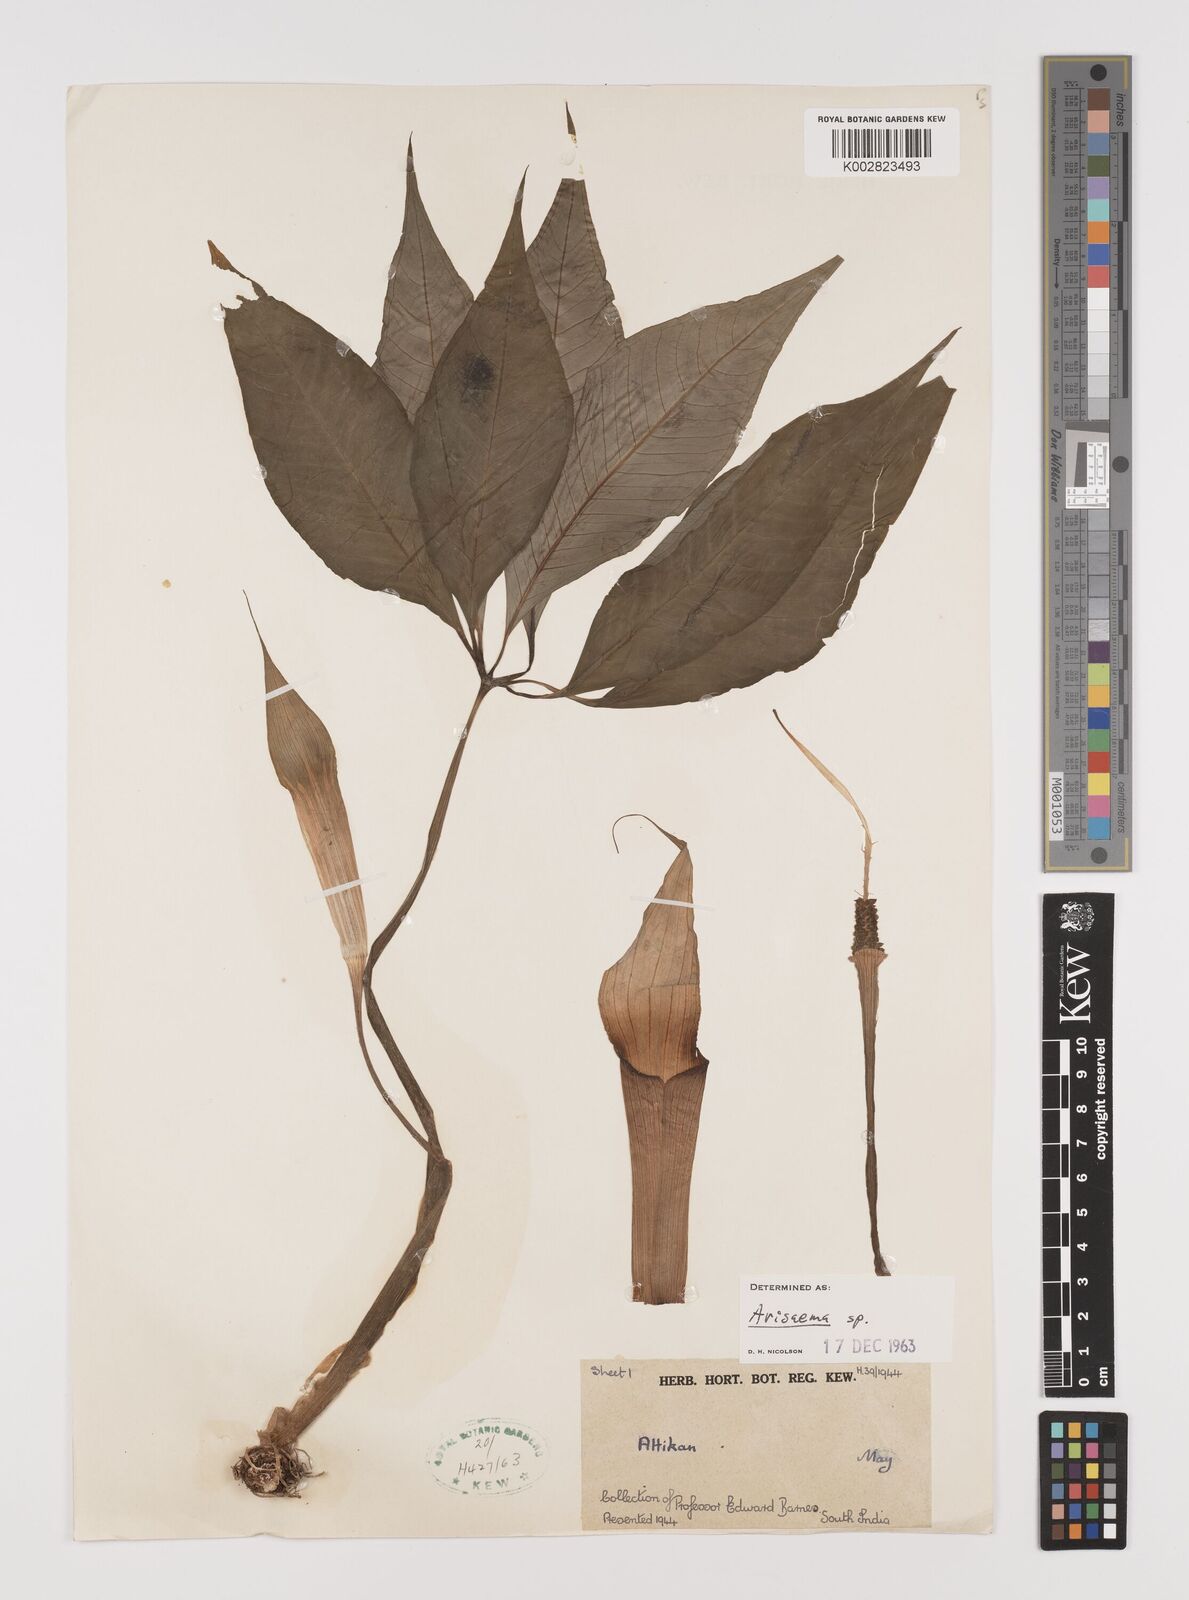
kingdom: Plantae
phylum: Tracheophyta
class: Liliopsida
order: Alismatales
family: Araceae
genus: Arisaema
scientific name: Arisaema
